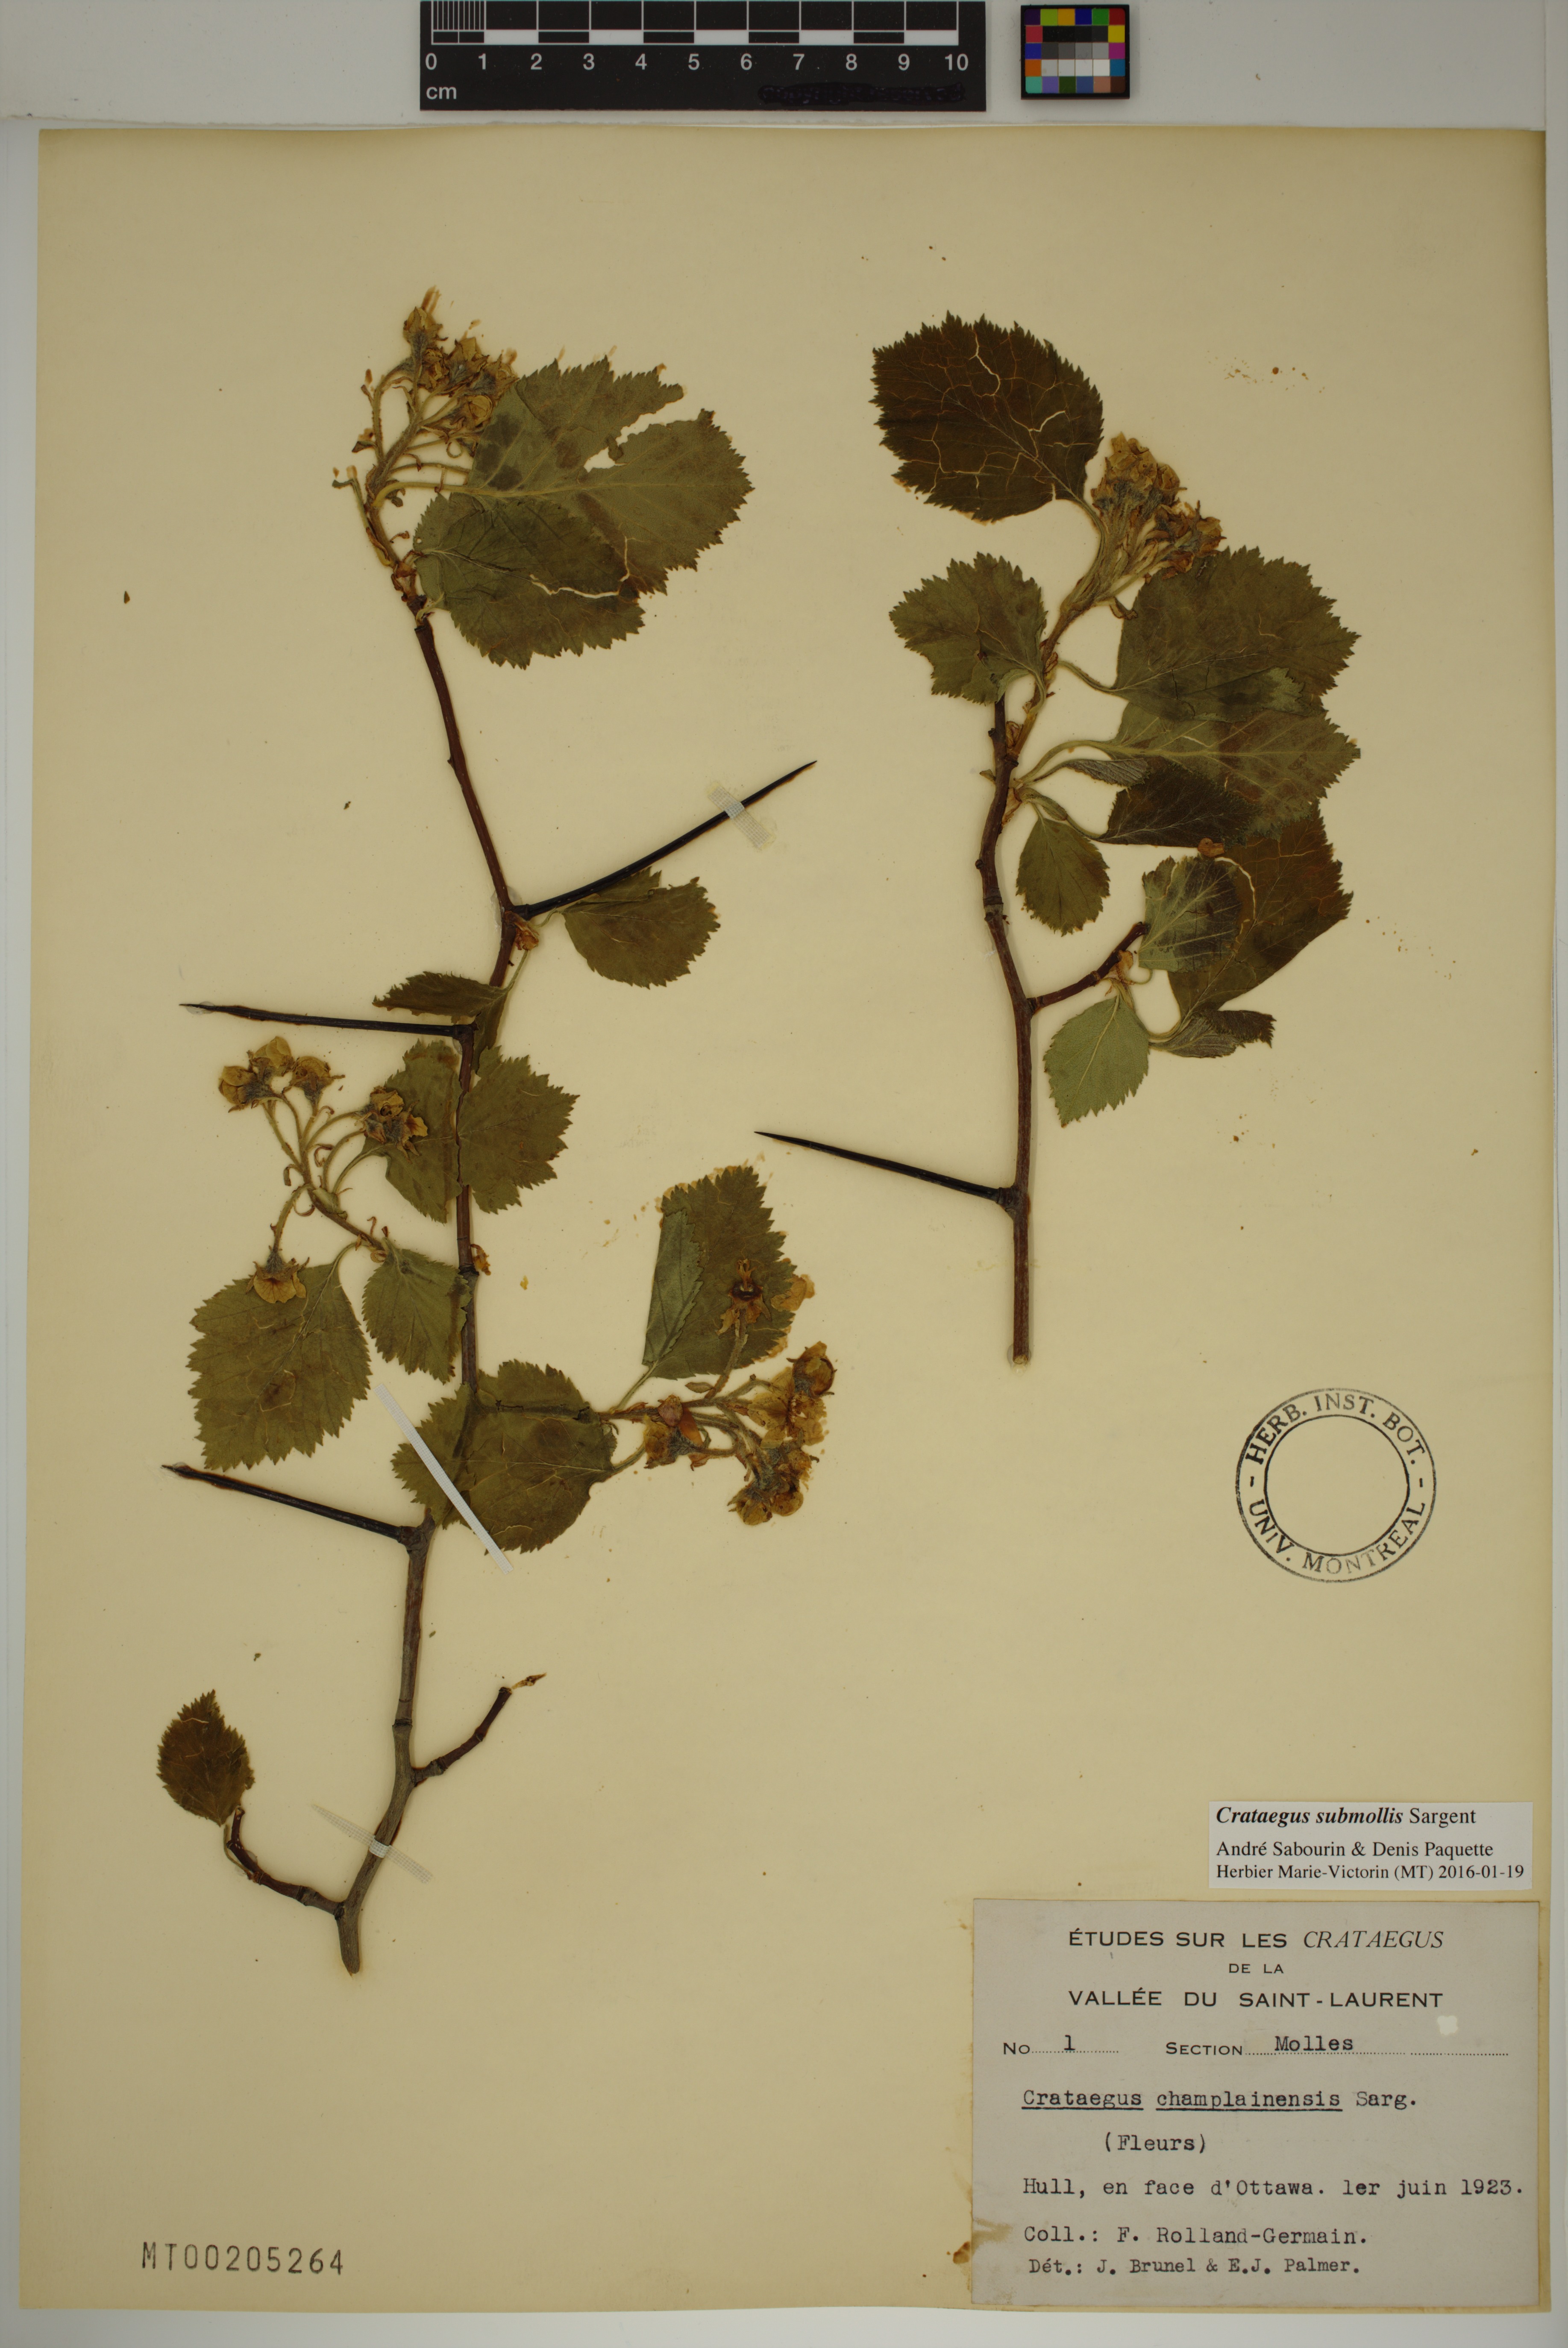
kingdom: Plantae
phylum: Tracheophyta
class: Magnoliopsida
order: Rosales
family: Rosaceae
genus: Crataegus
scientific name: Crataegus submollis
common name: Hairy cockspurthorn
